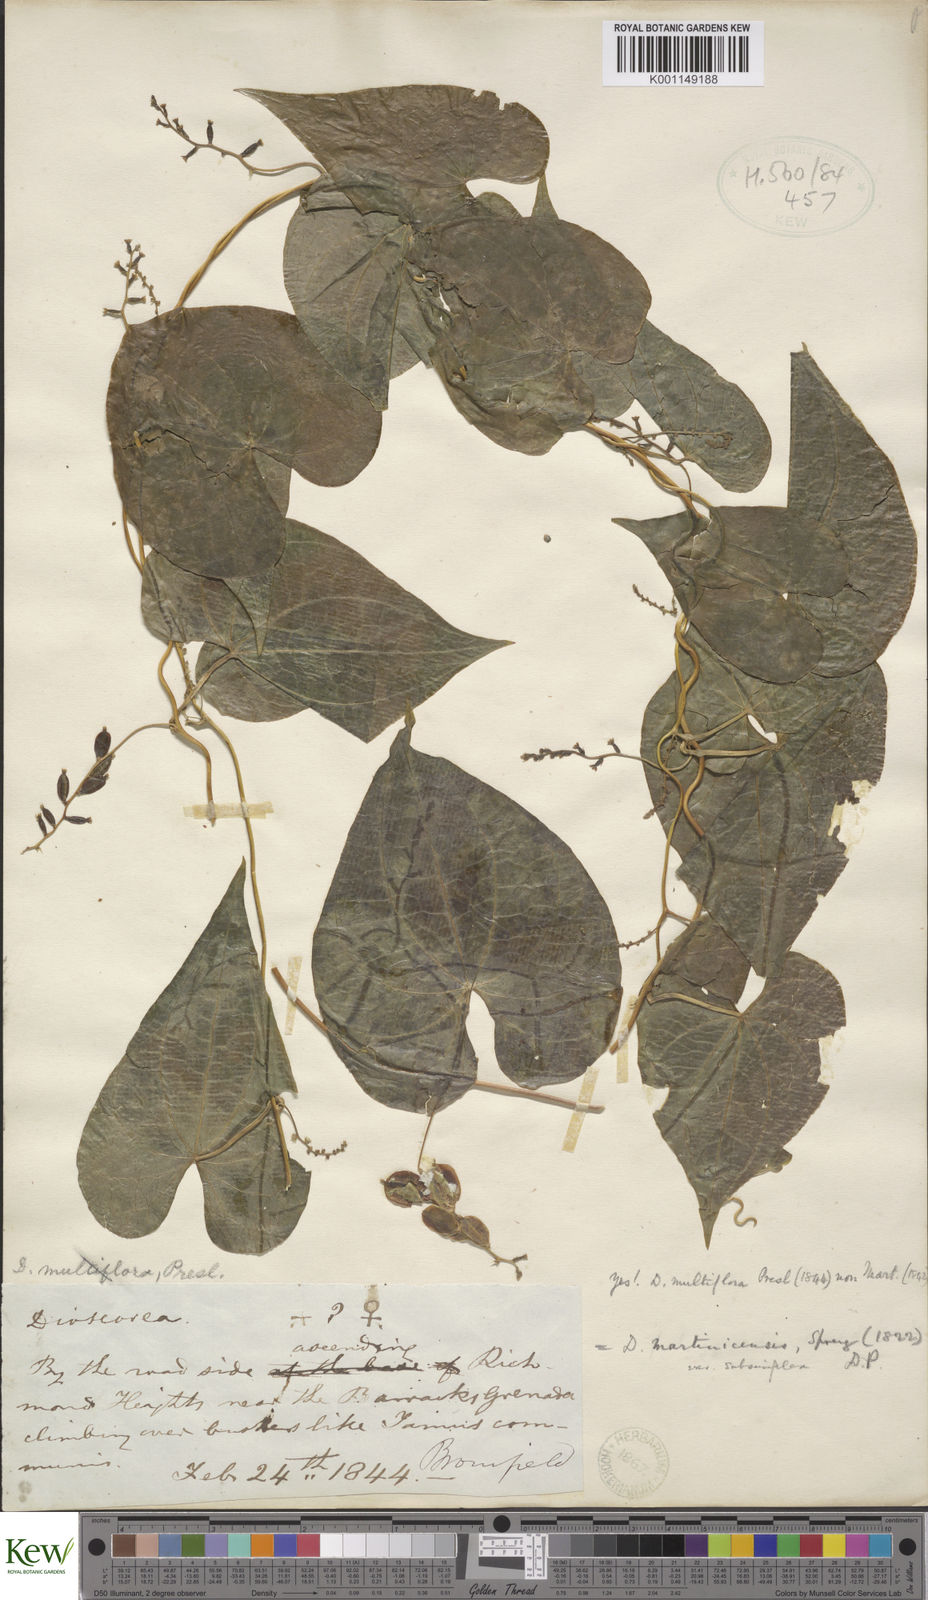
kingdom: Plantae
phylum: Tracheophyta
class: Liliopsida
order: Dioscoreales
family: Dioscoreaceae
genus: Dioscorea
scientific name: Dioscorea polygonoides
